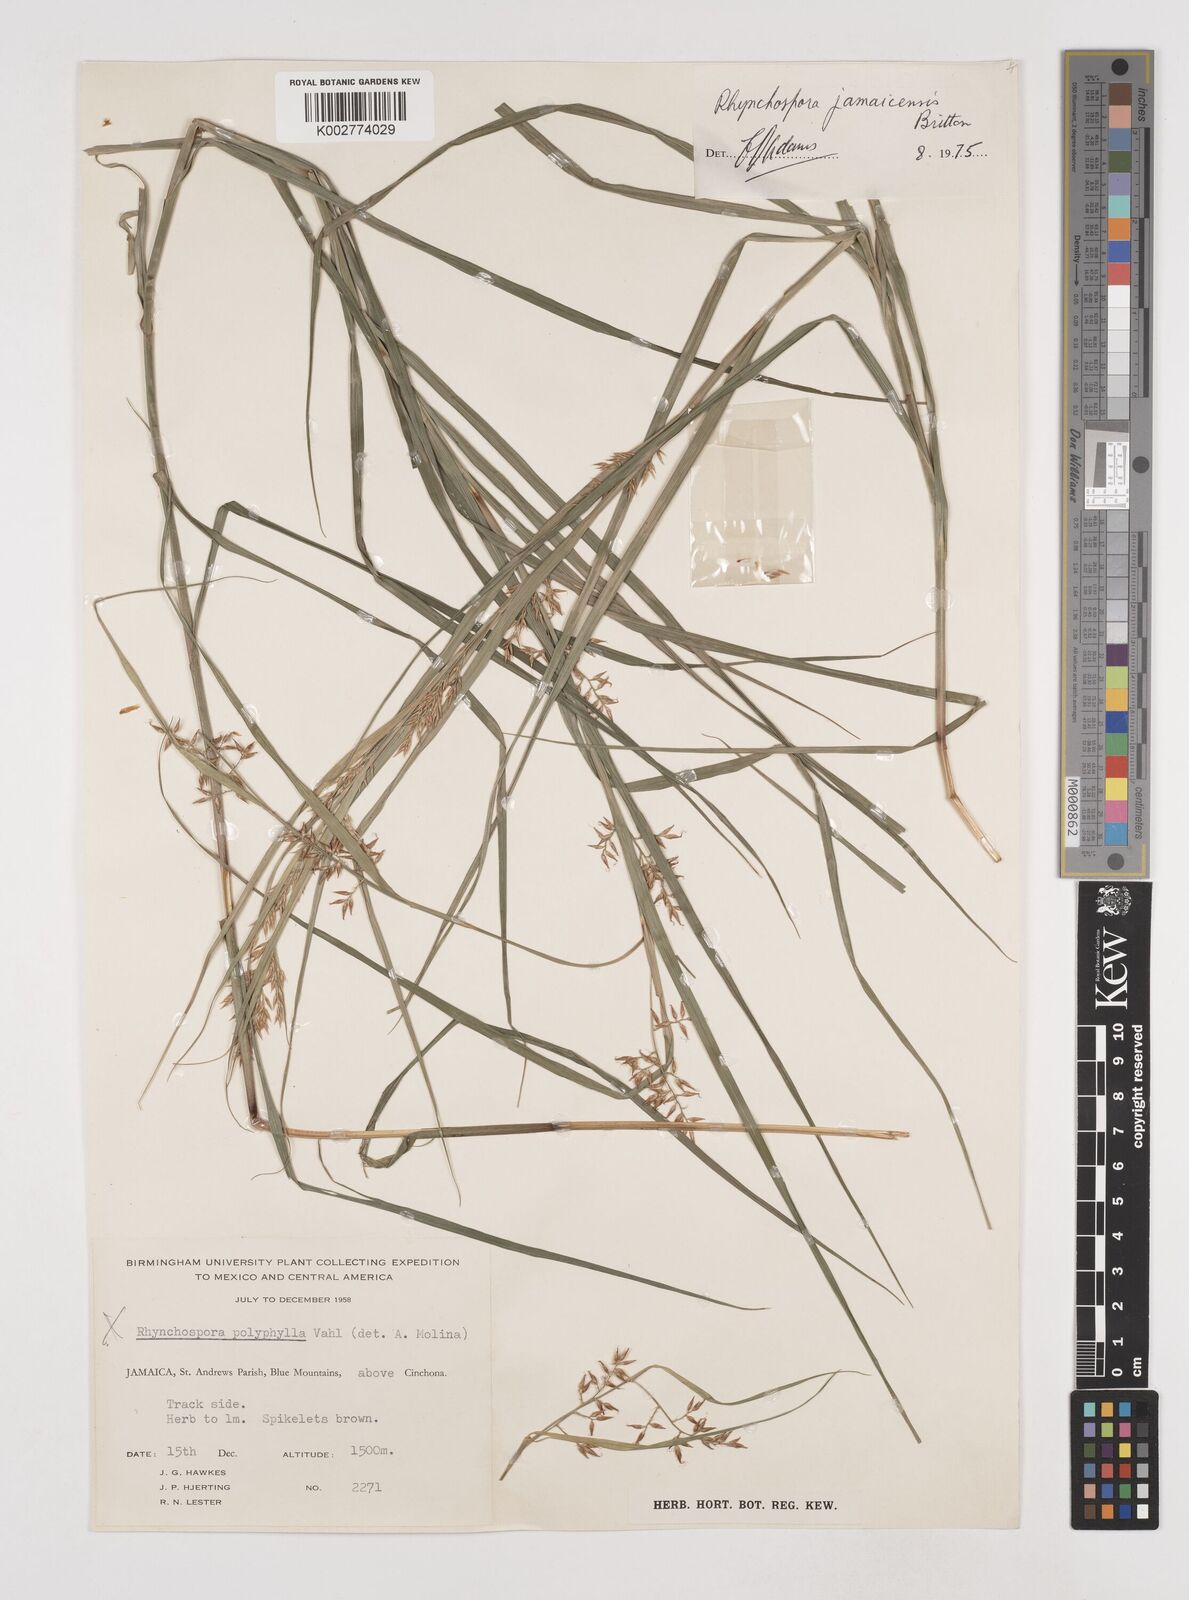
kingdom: Plantae
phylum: Tracheophyta
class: Liliopsida
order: Poales
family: Cyperaceae
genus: Rhynchospora
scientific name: Rhynchospora jamaicensis
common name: Jamaican beaksedge
